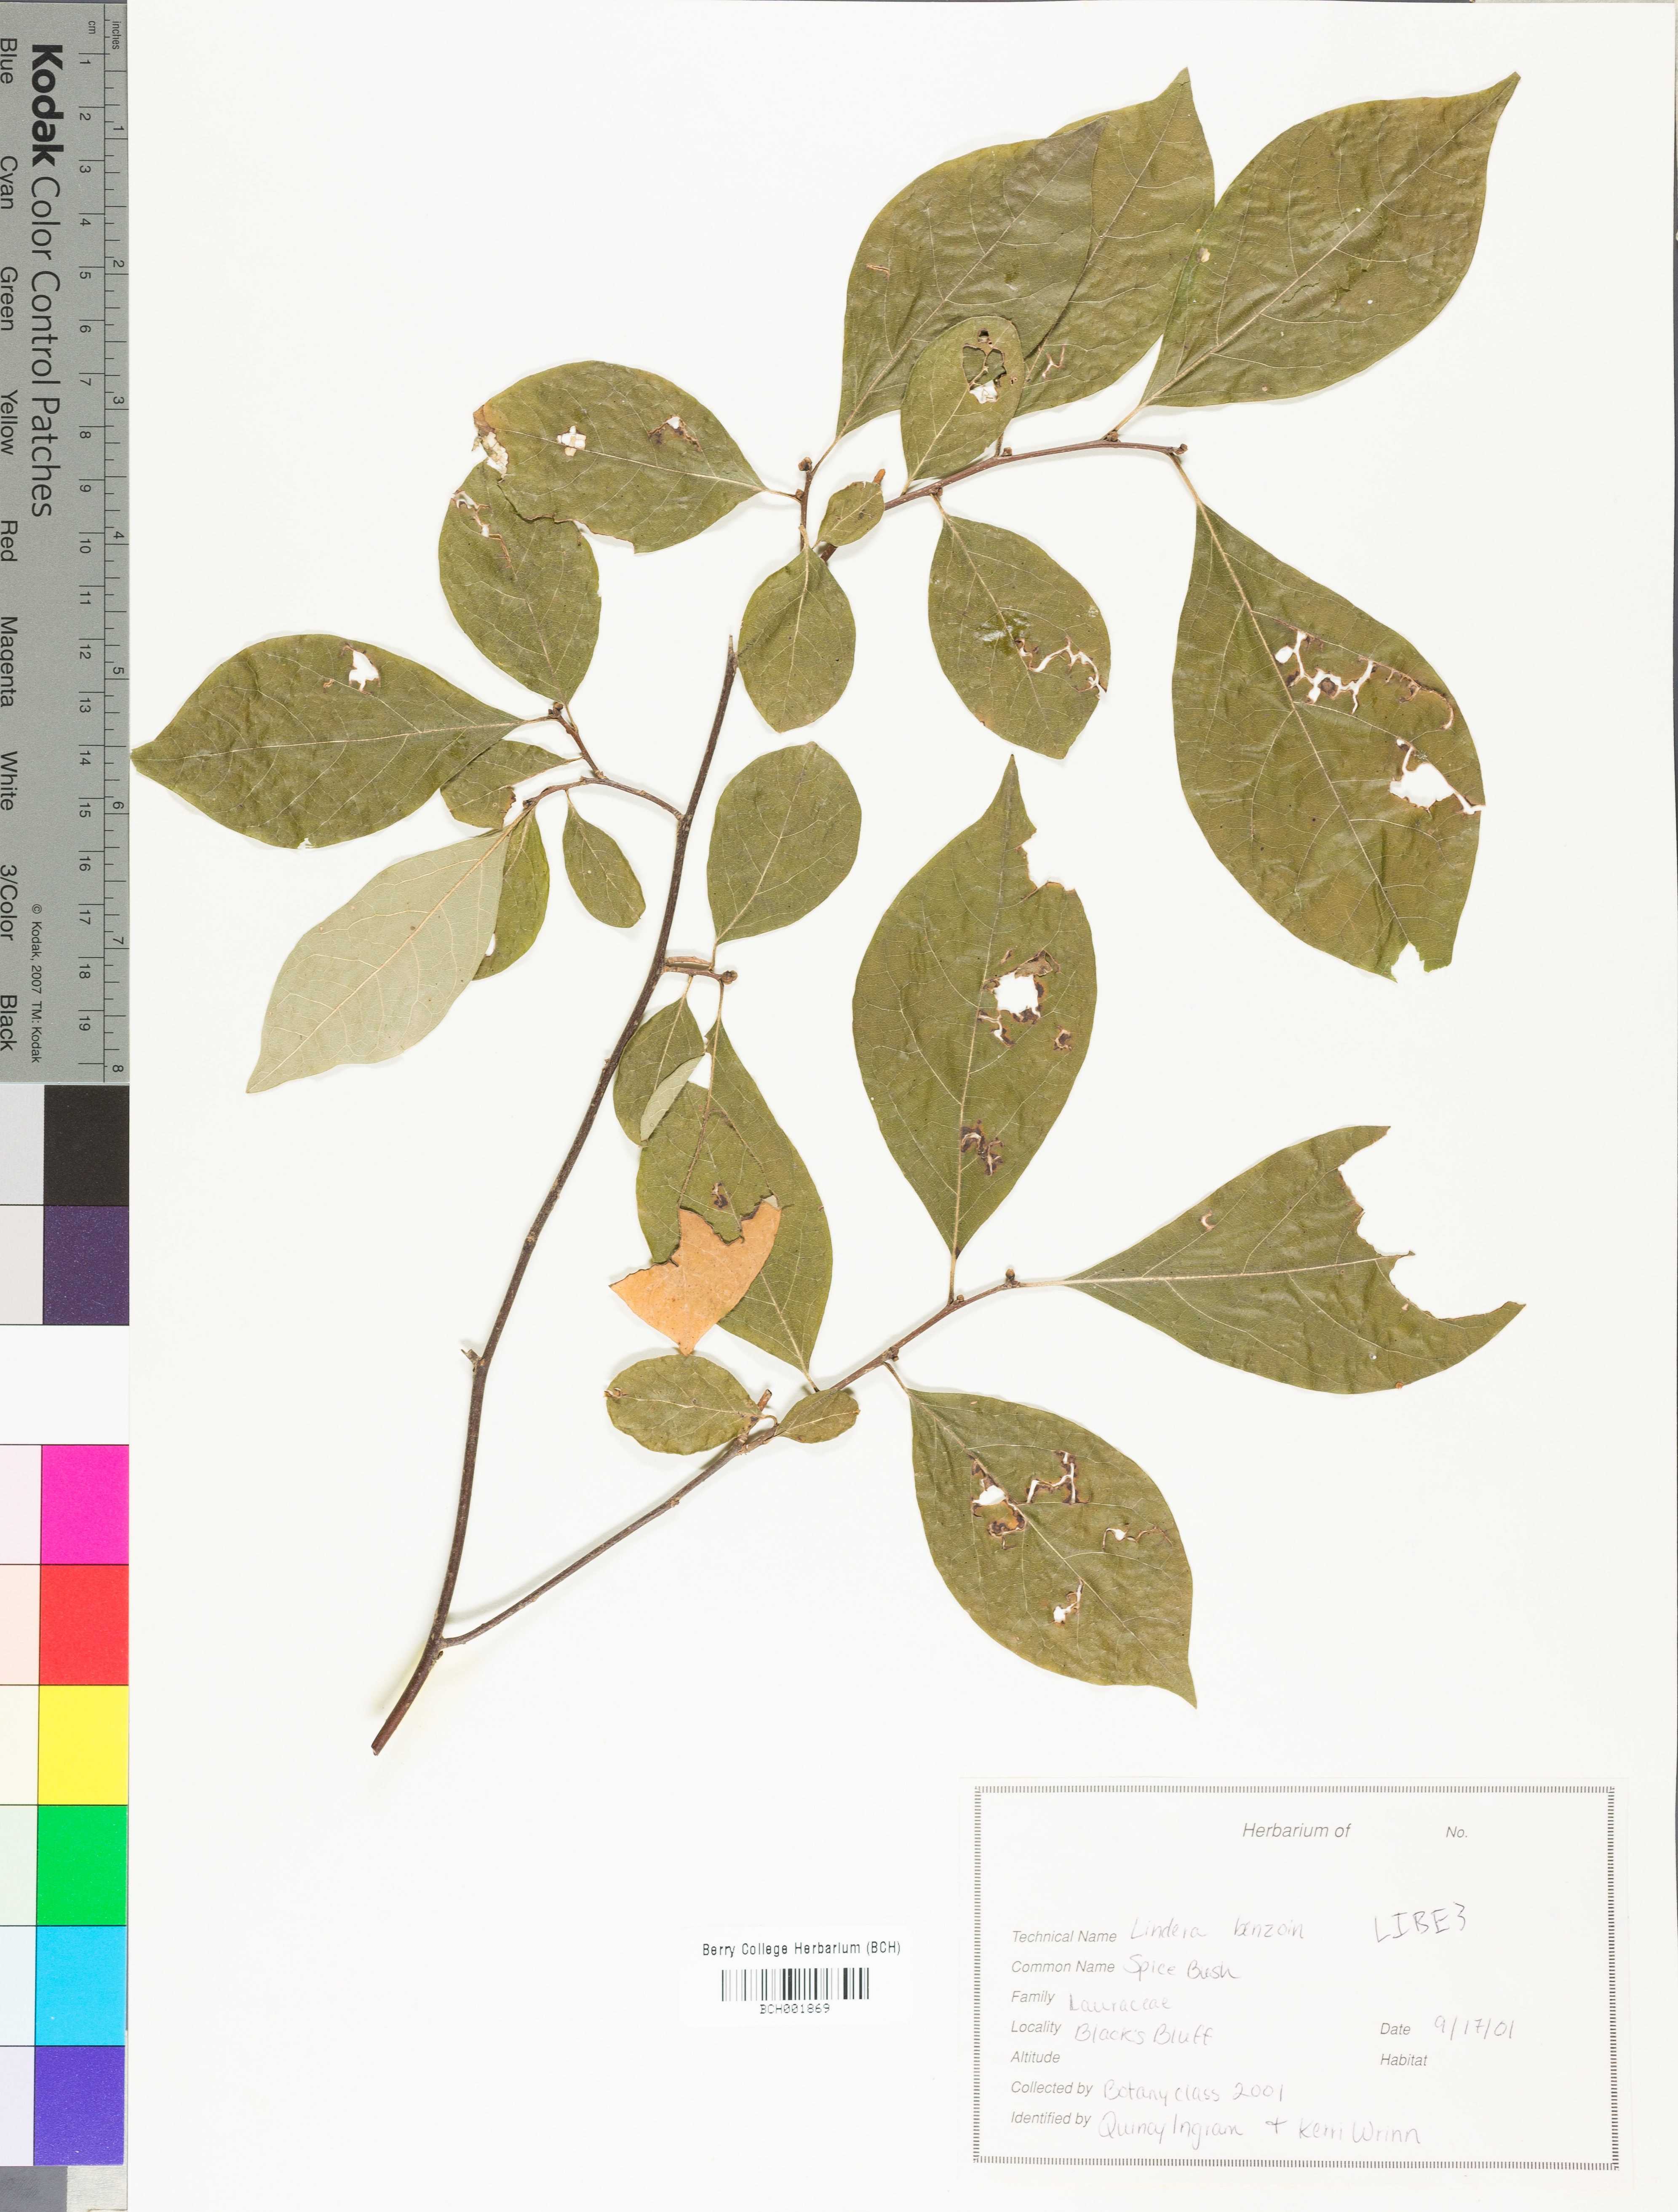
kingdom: Plantae
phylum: Tracheophyta
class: Magnoliopsida
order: Laurales
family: Lauraceae
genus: Lindera
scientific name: Lindera benzoin
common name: Spicebush
